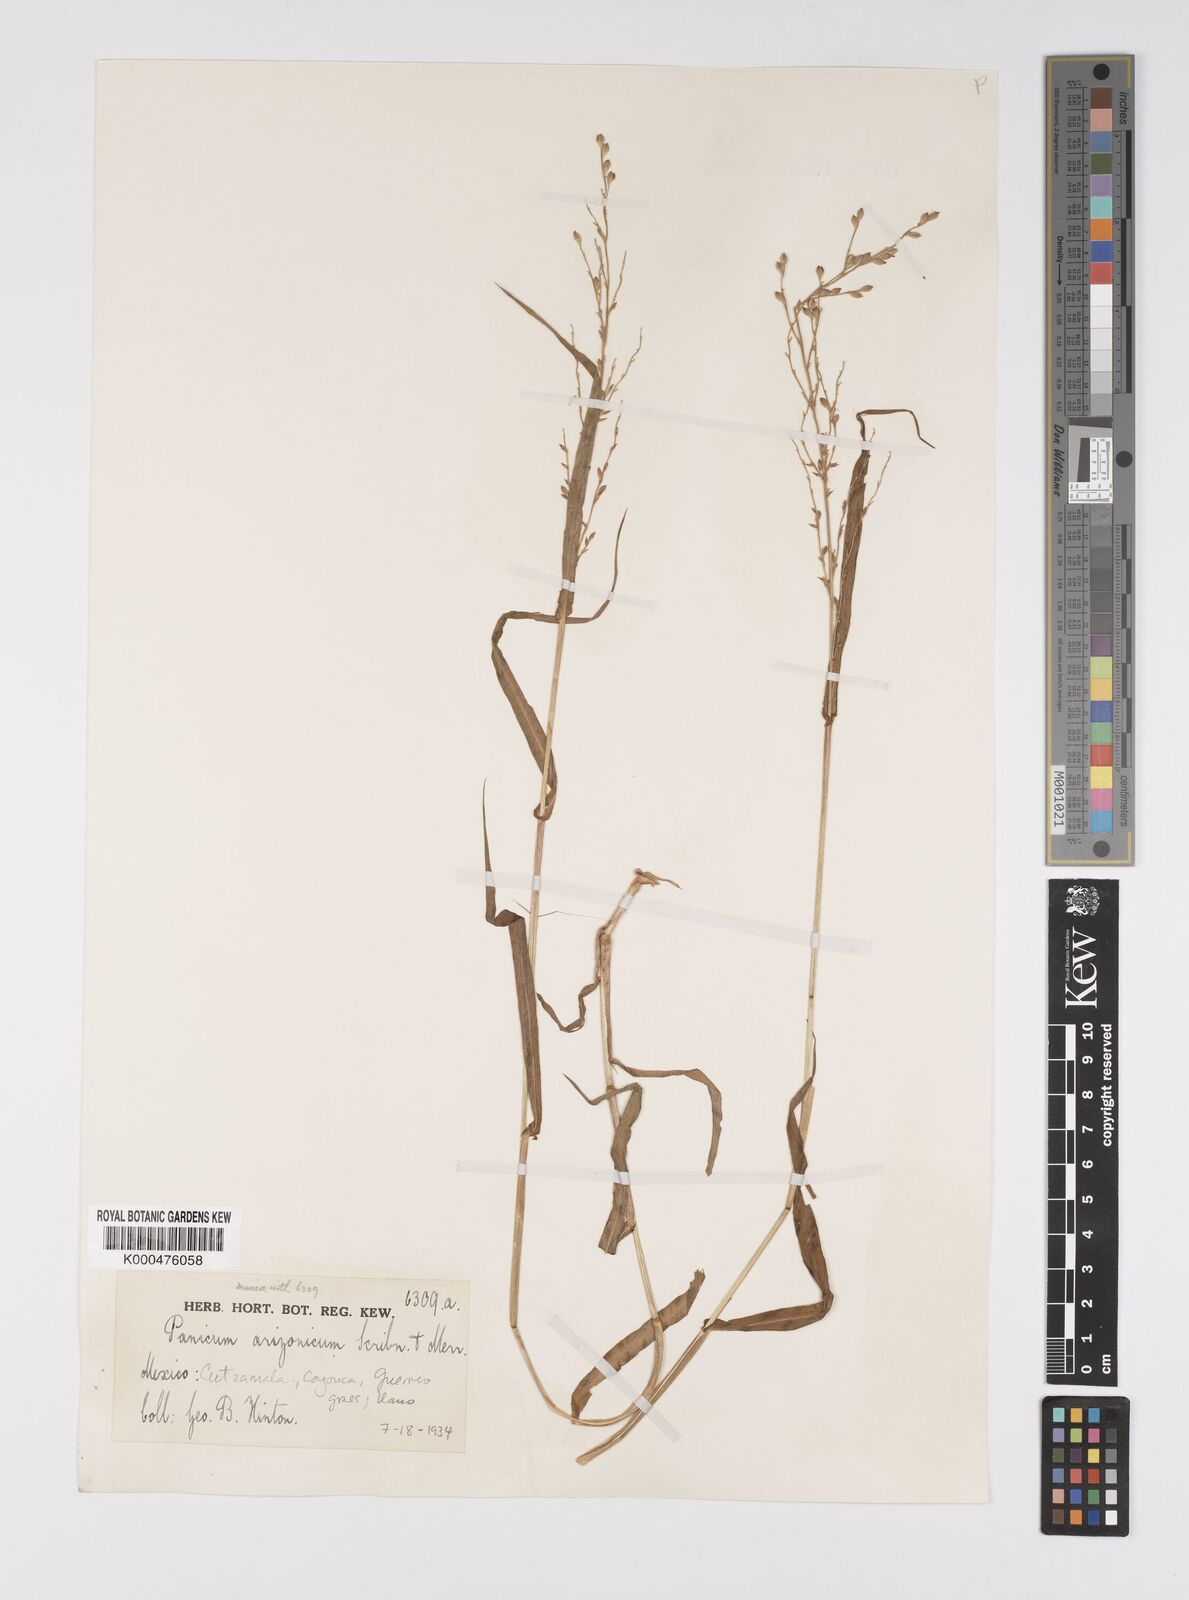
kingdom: Plantae
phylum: Tracheophyta
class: Liliopsida
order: Poales
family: Poaceae
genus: Urochloa
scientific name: Urochloa arizonica
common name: Arizona signal grass
